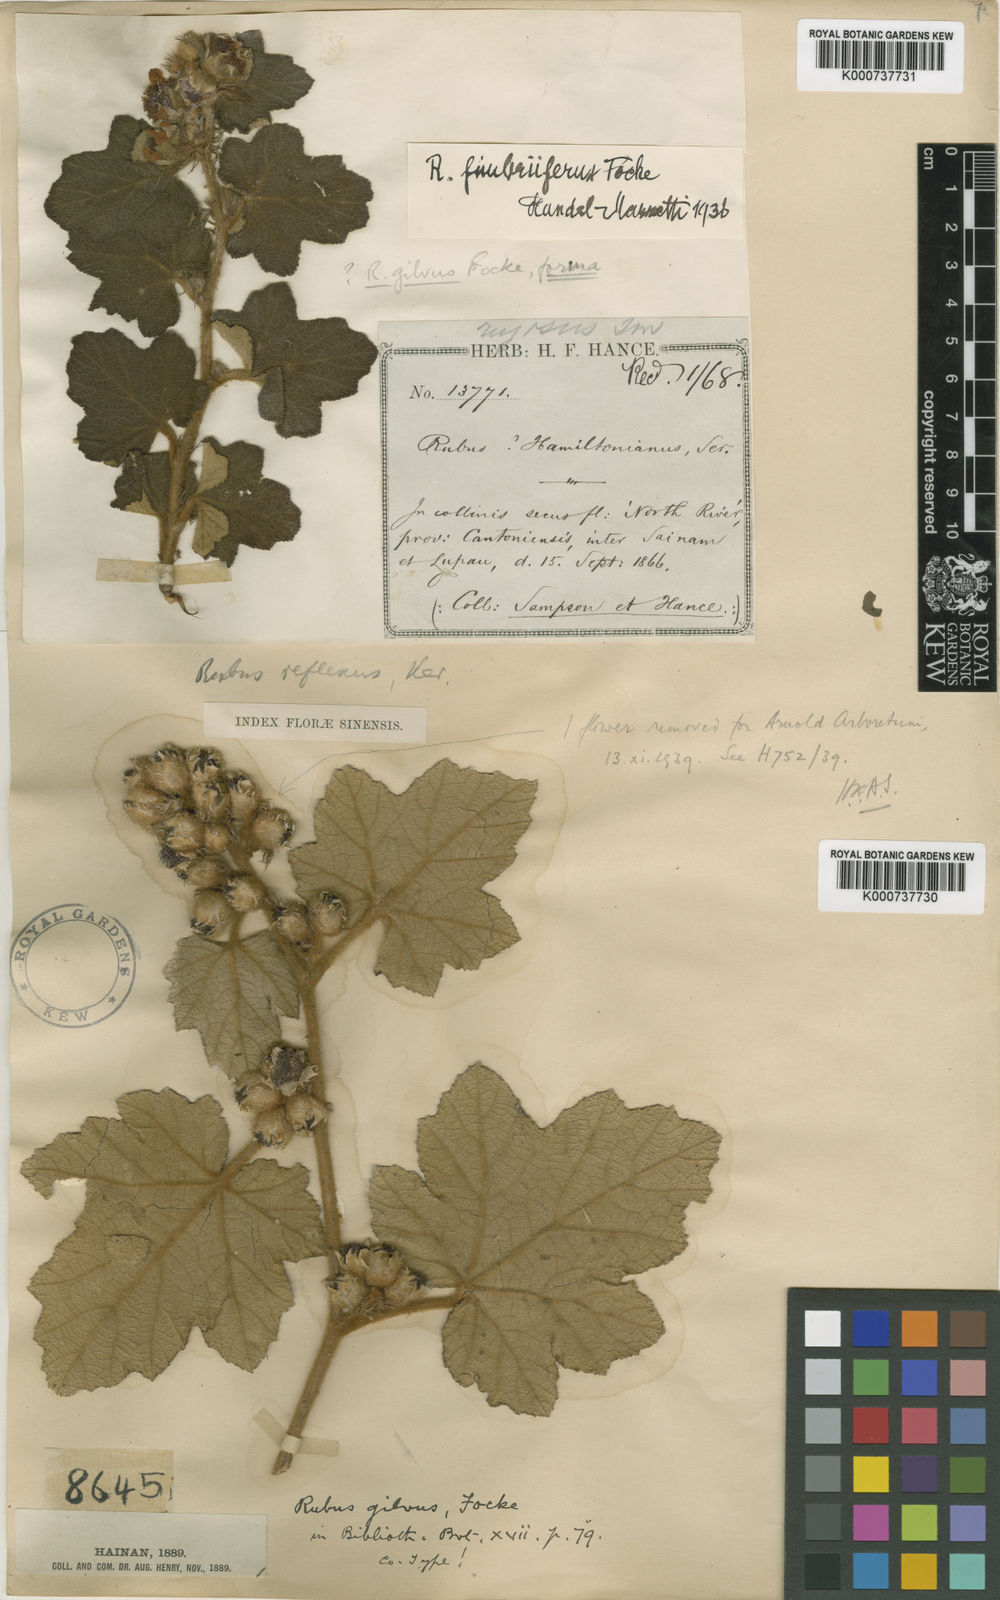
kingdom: Plantae
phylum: Tracheophyta
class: Magnoliopsida
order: Rosales
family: Rosaceae
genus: Rubus
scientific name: Rubus reflexus
